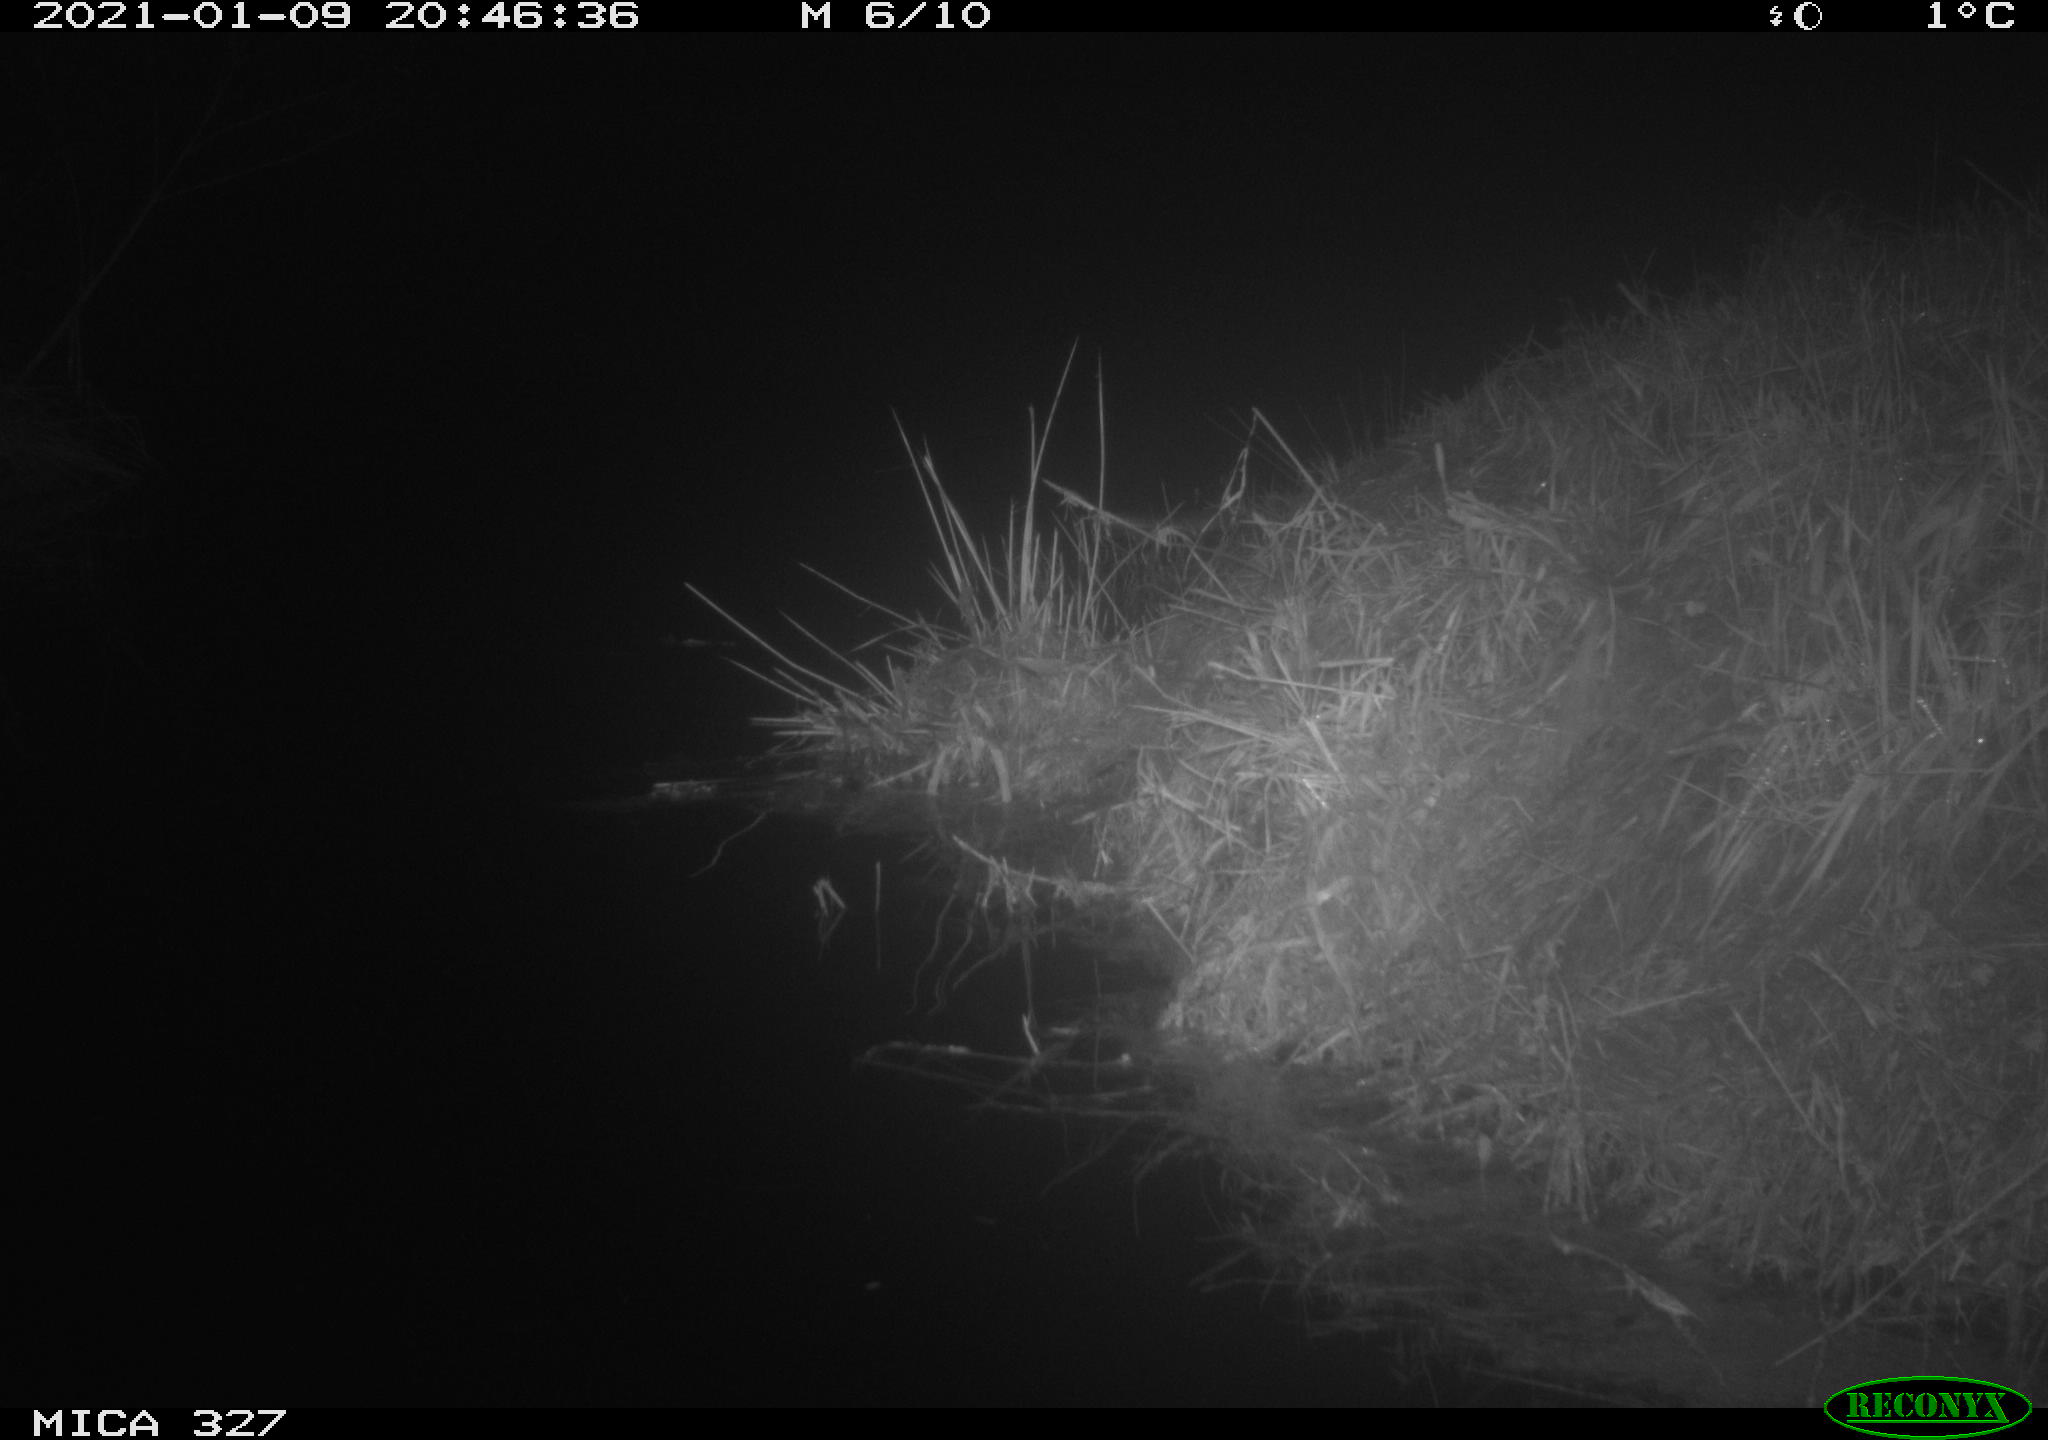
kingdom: Animalia
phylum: Chordata
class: Mammalia
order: Rodentia
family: Cricetidae
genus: Ondatra
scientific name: Ondatra zibethicus
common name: Muskrat
